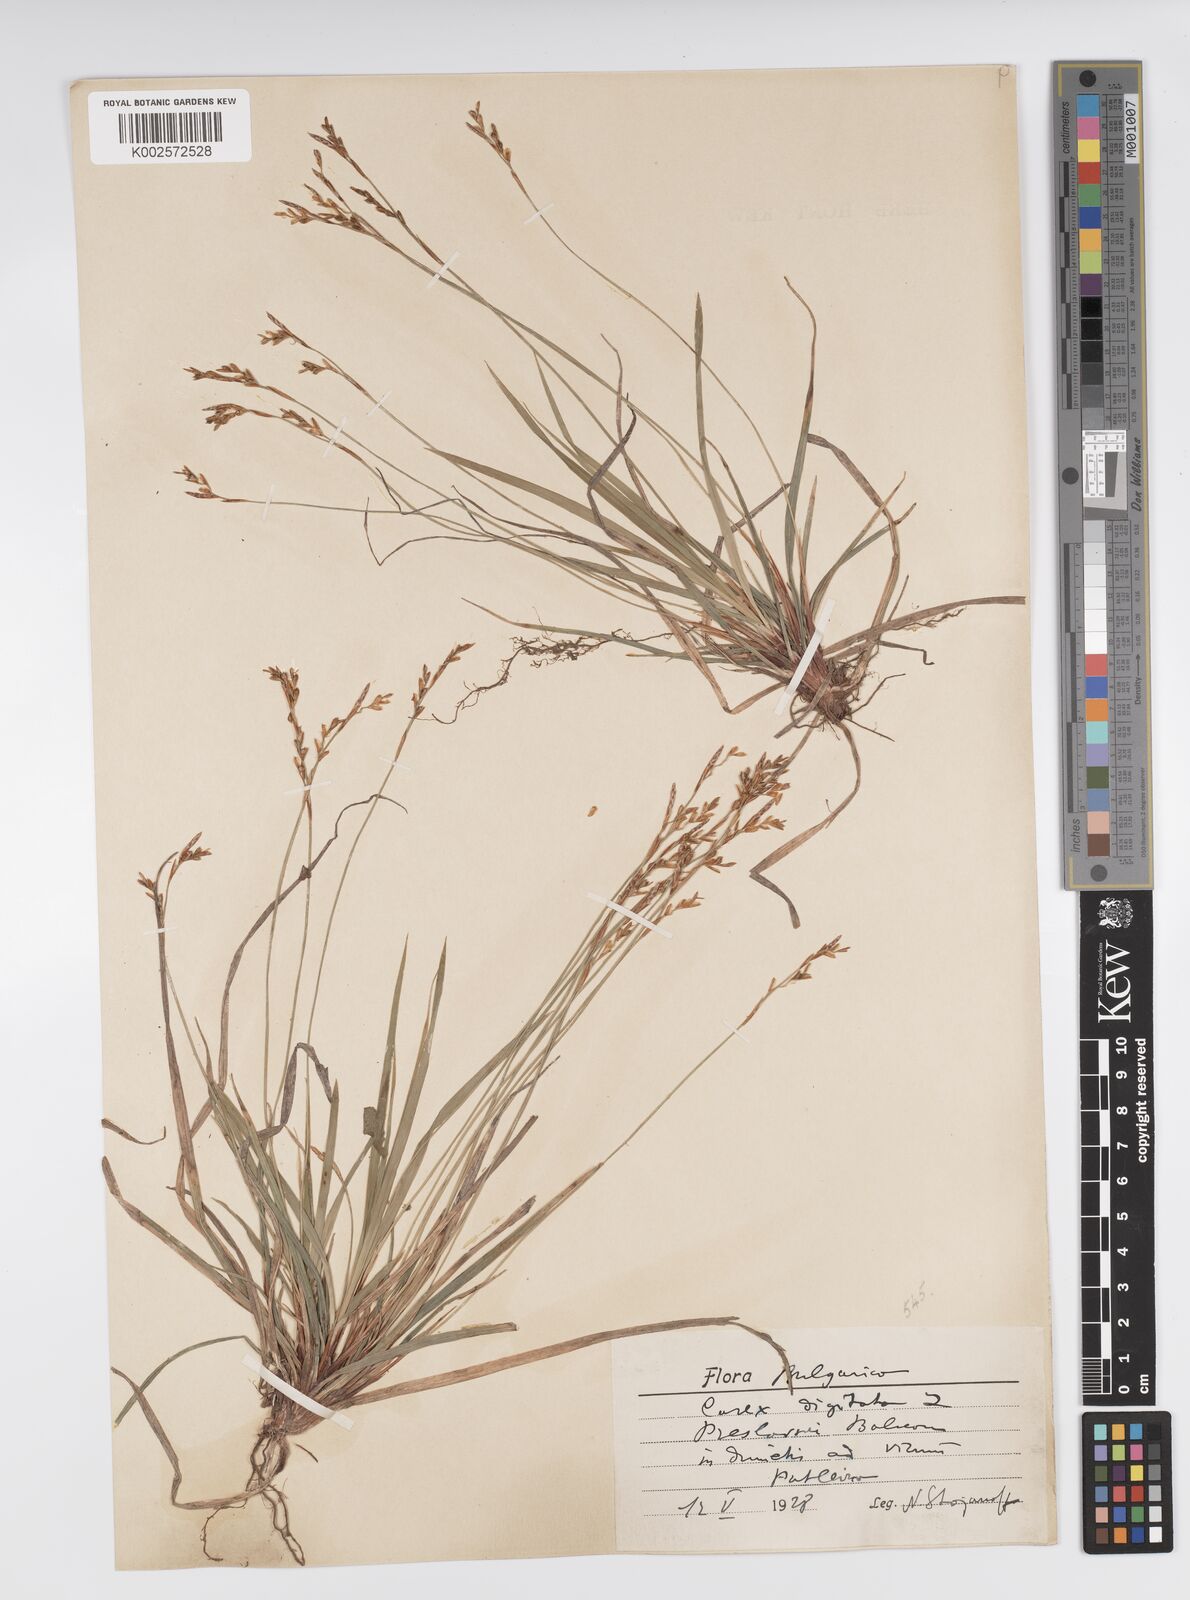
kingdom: Plantae
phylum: Tracheophyta
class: Liliopsida
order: Poales
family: Cyperaceae
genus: Carex
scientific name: Carex digitata
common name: Fingered sedge
